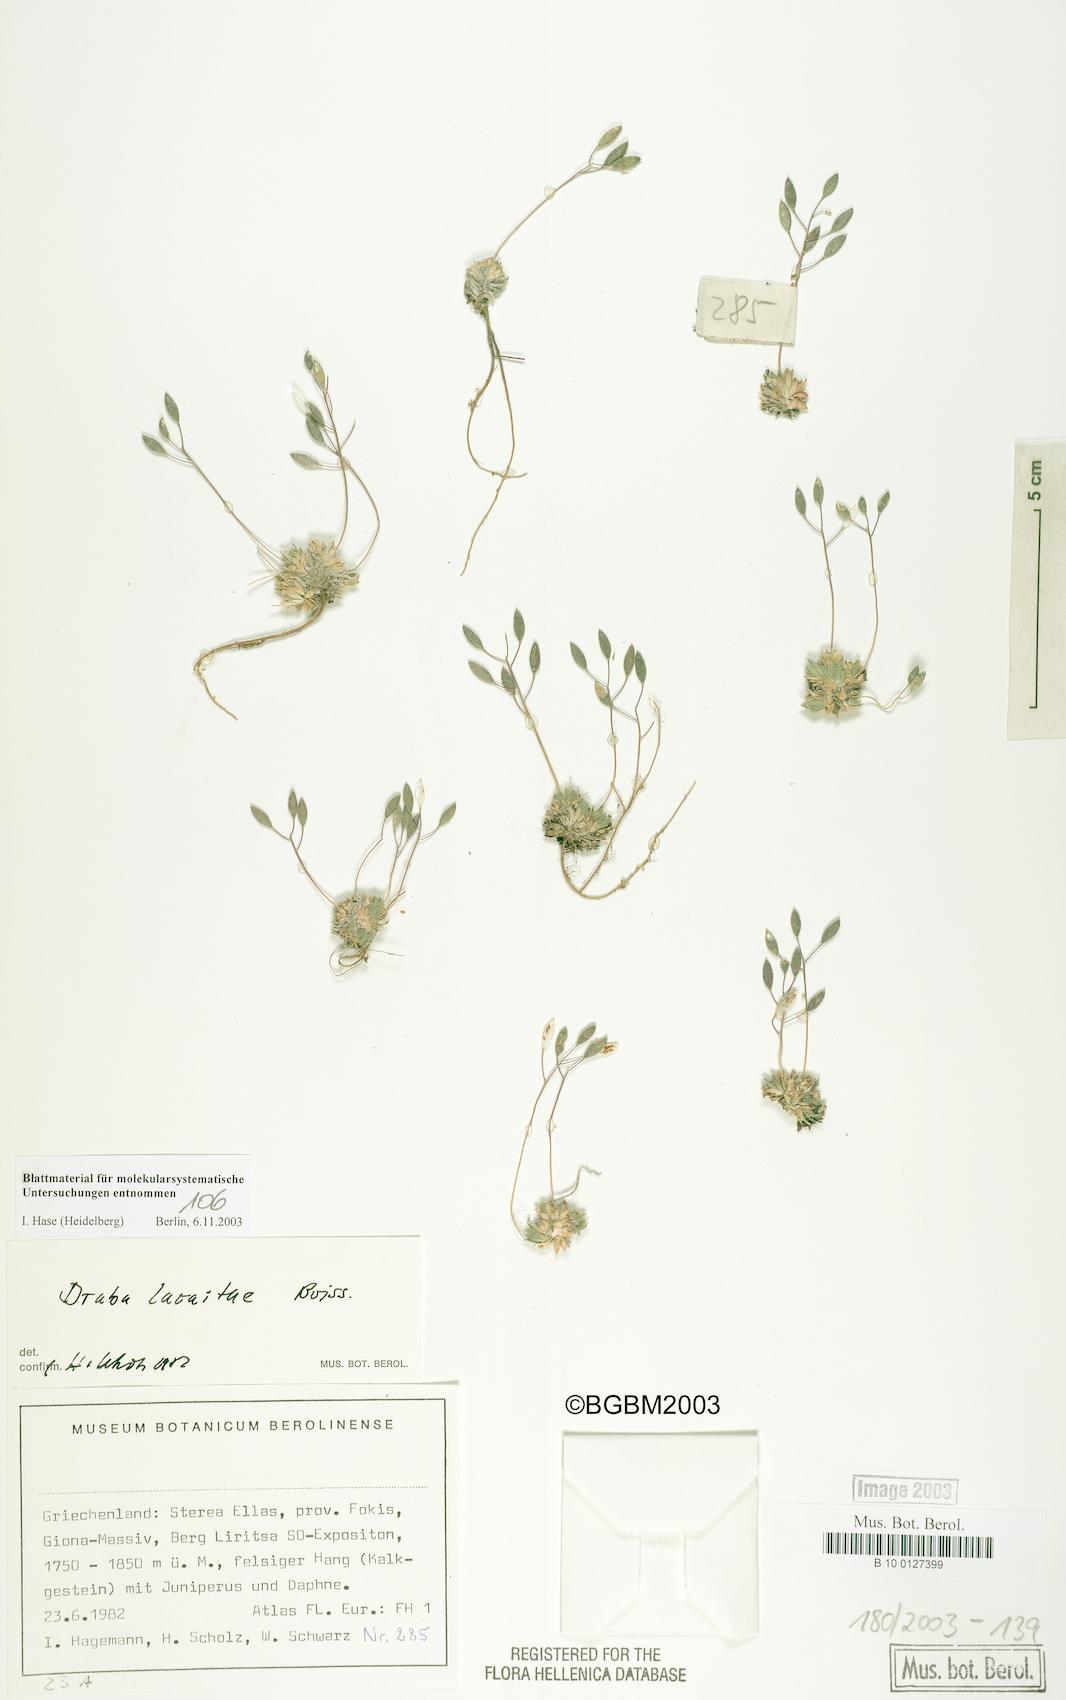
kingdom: Plantae
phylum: Tracheophyta
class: Magnoliopsida
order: Brassicales
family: Brassicaceae
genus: Draba
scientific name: Draba lacaitae
